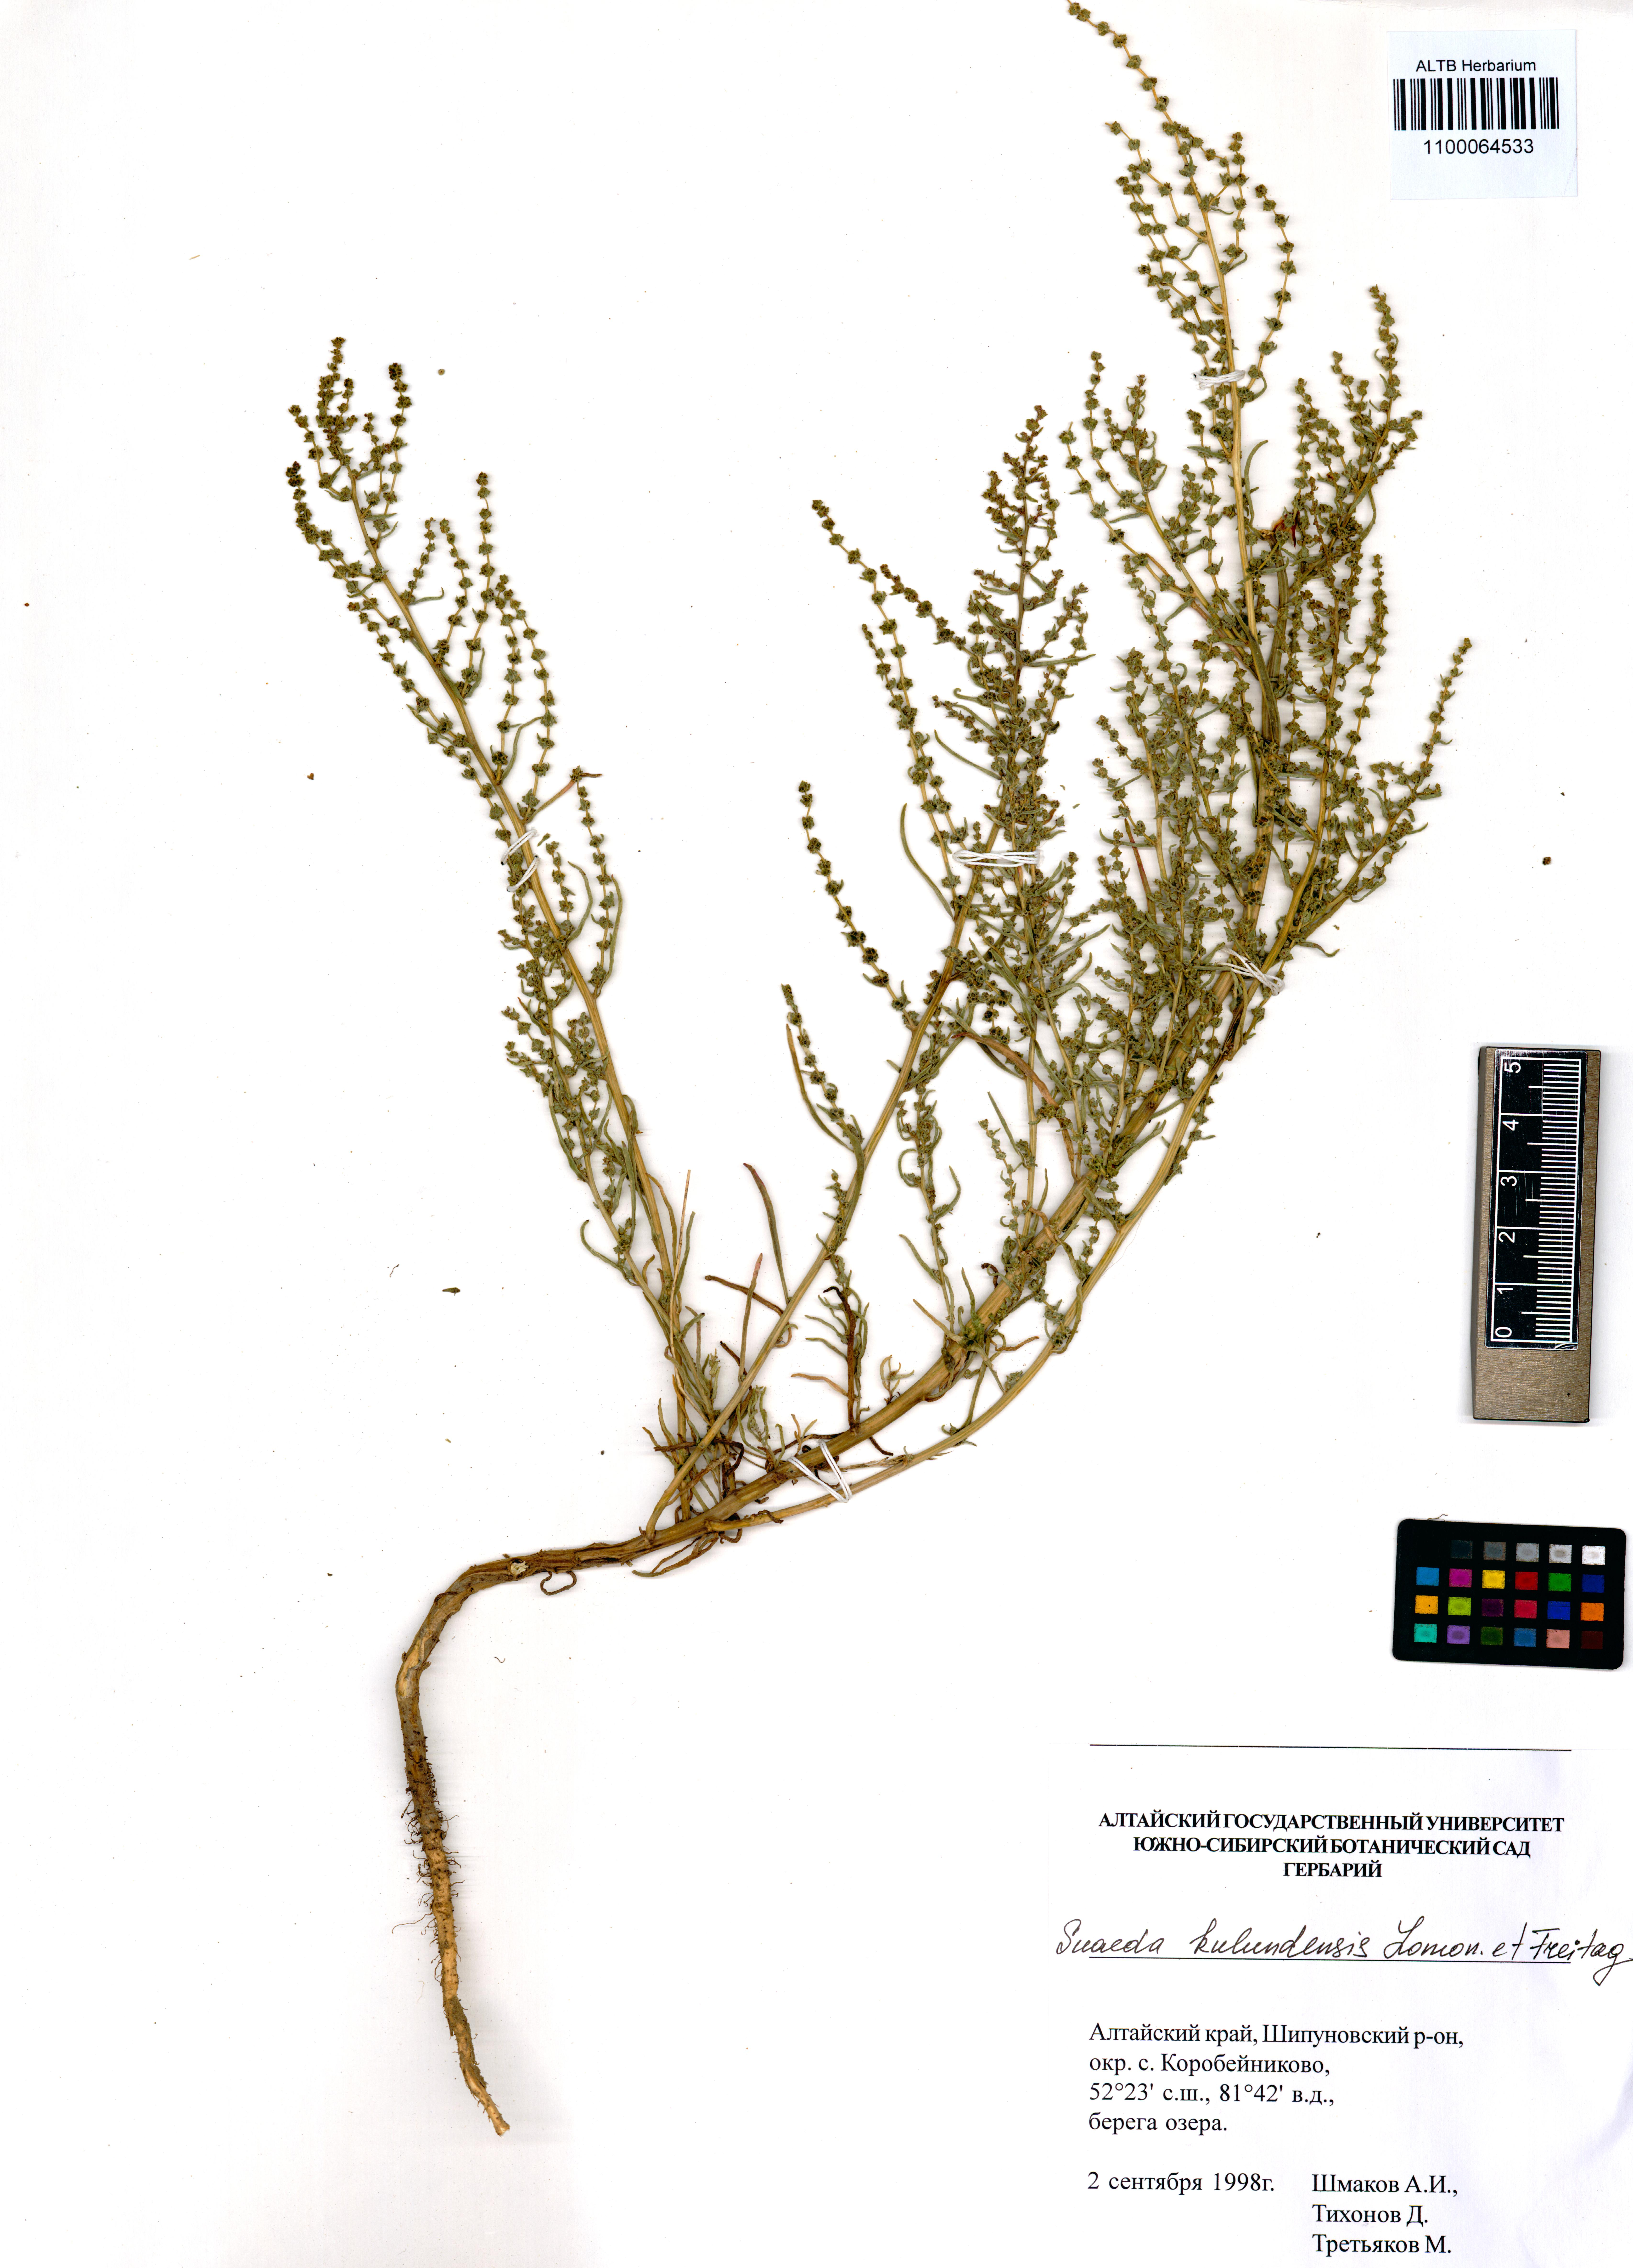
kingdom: Plantae
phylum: Tracheophyta
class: Magnoliopsida
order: Caryophyllales
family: Amaranthaceae
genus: Suaeda
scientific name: Suaeda kulundensis
